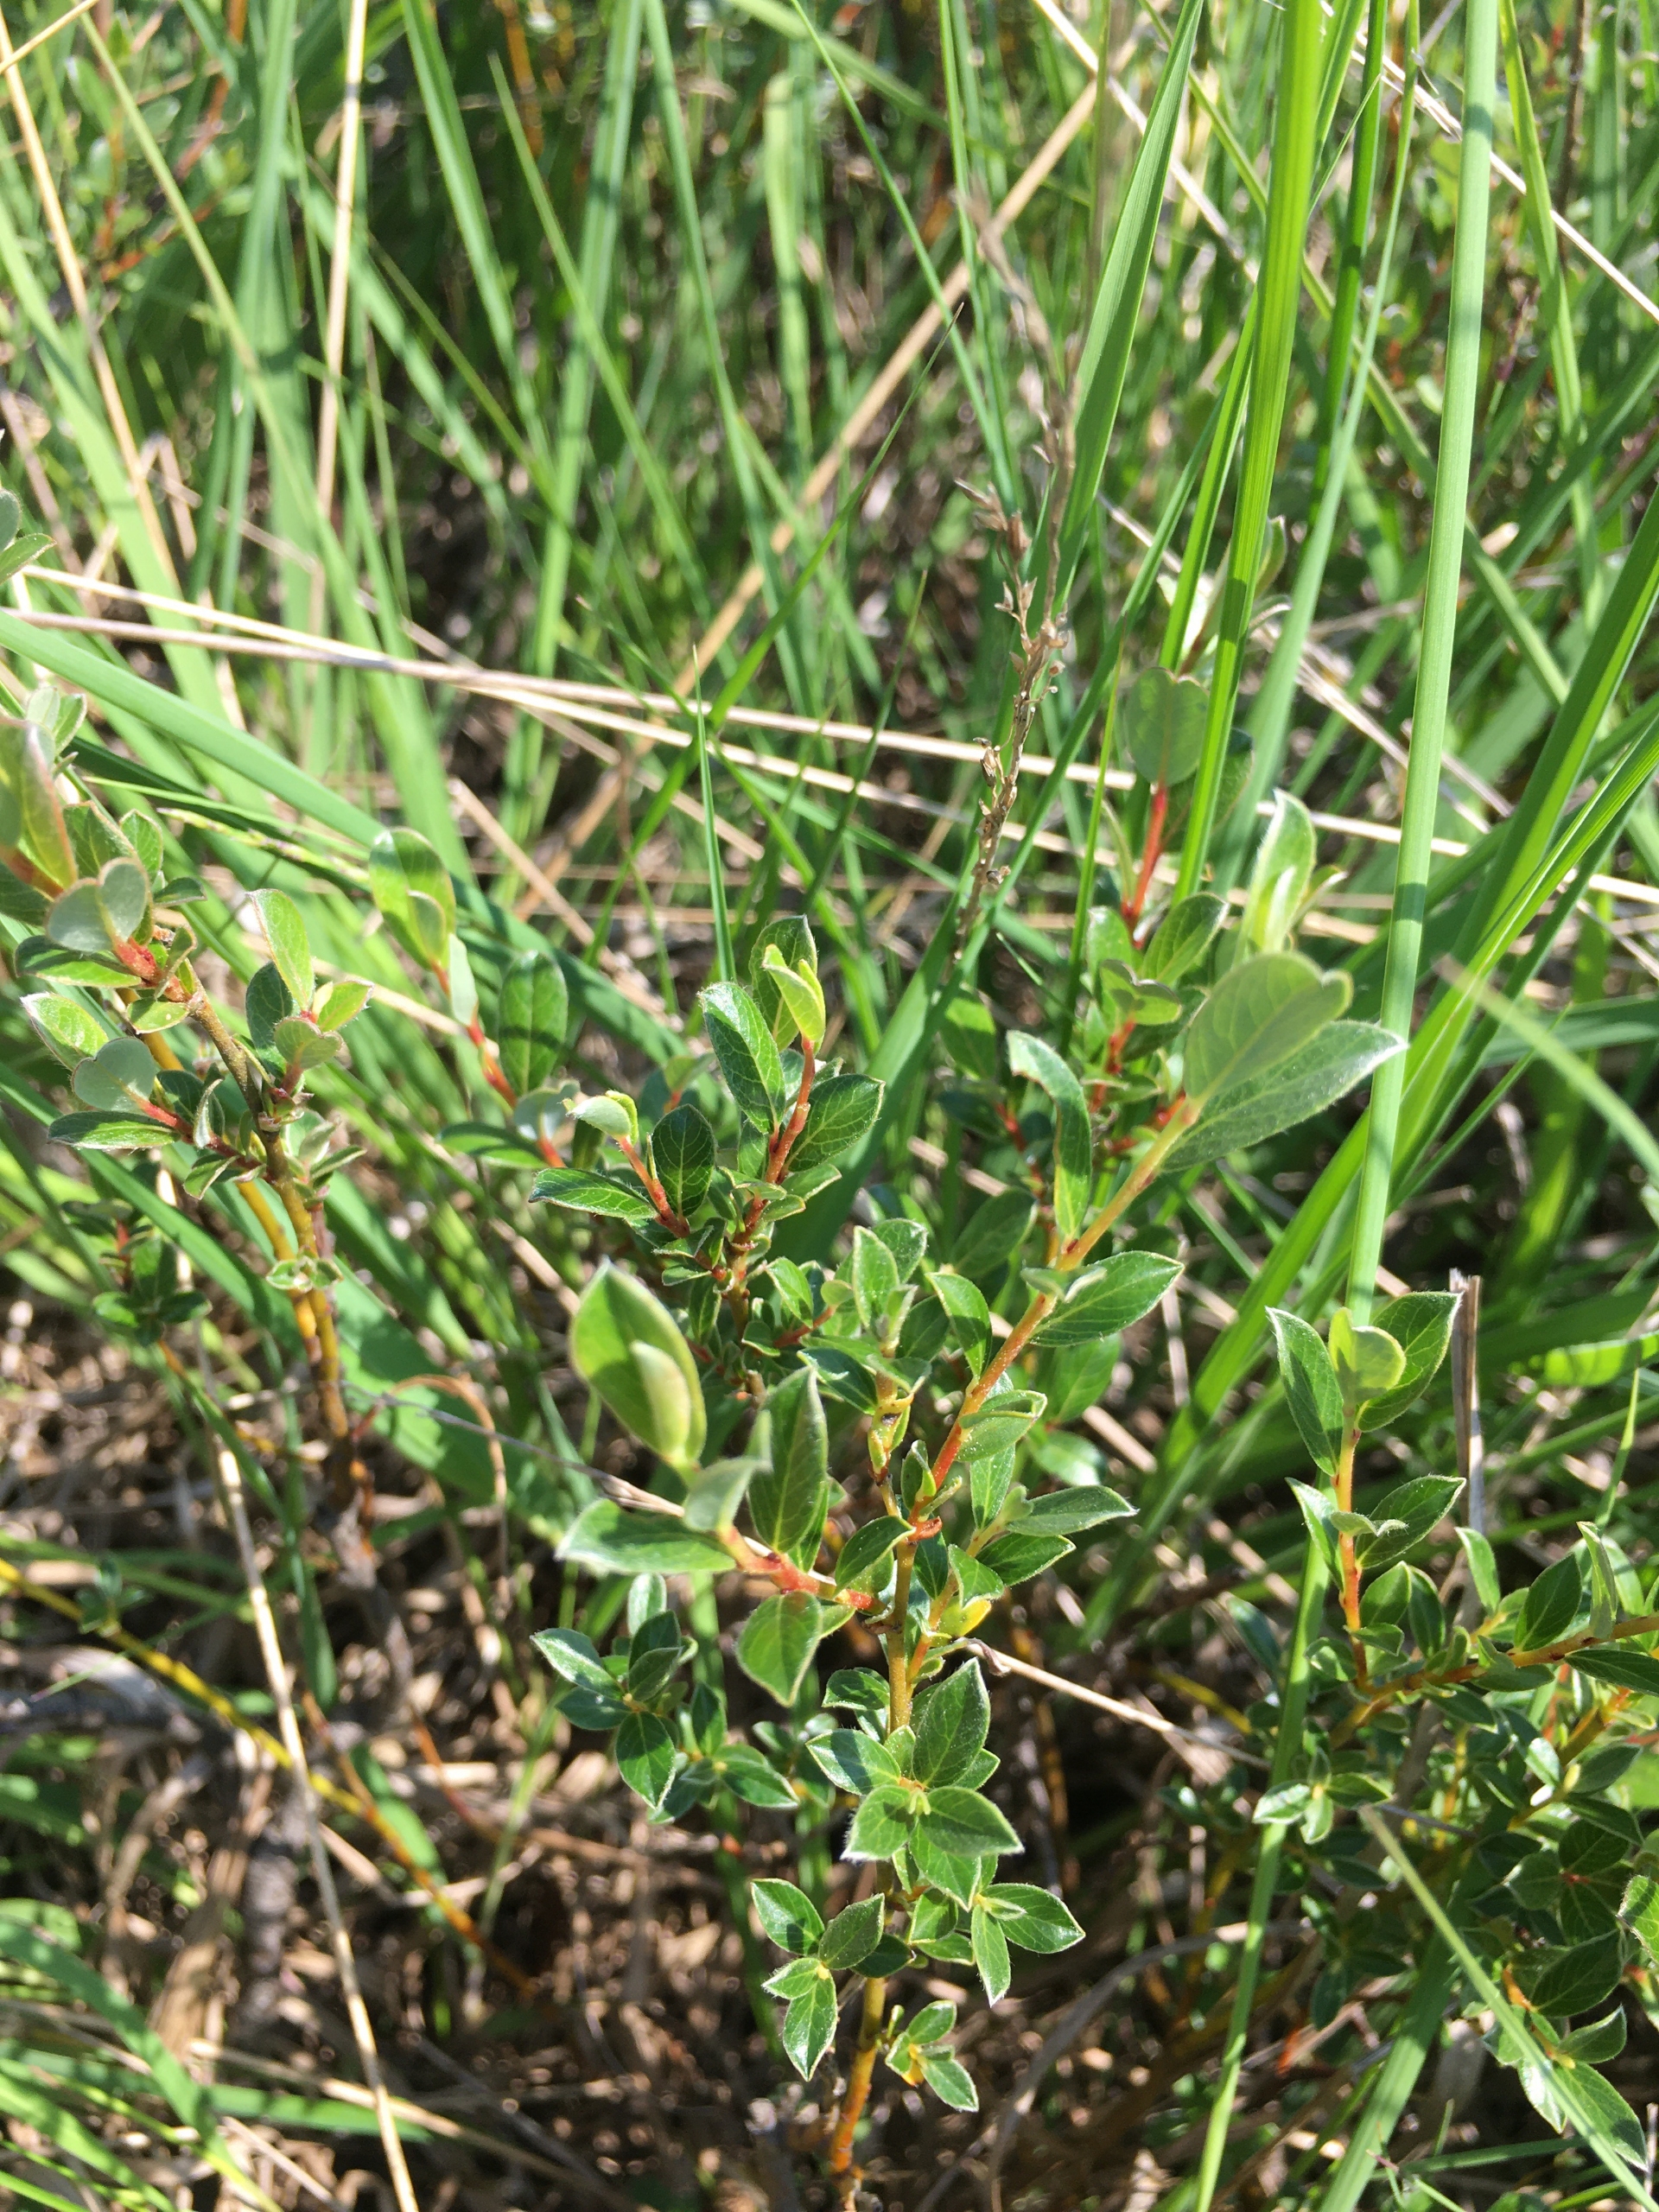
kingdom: Plantae
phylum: Tracheophyta
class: Magnoliopsida
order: Malpighiales
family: Salicaceae
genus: Salix
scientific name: Salix repens
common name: Krybende pil
